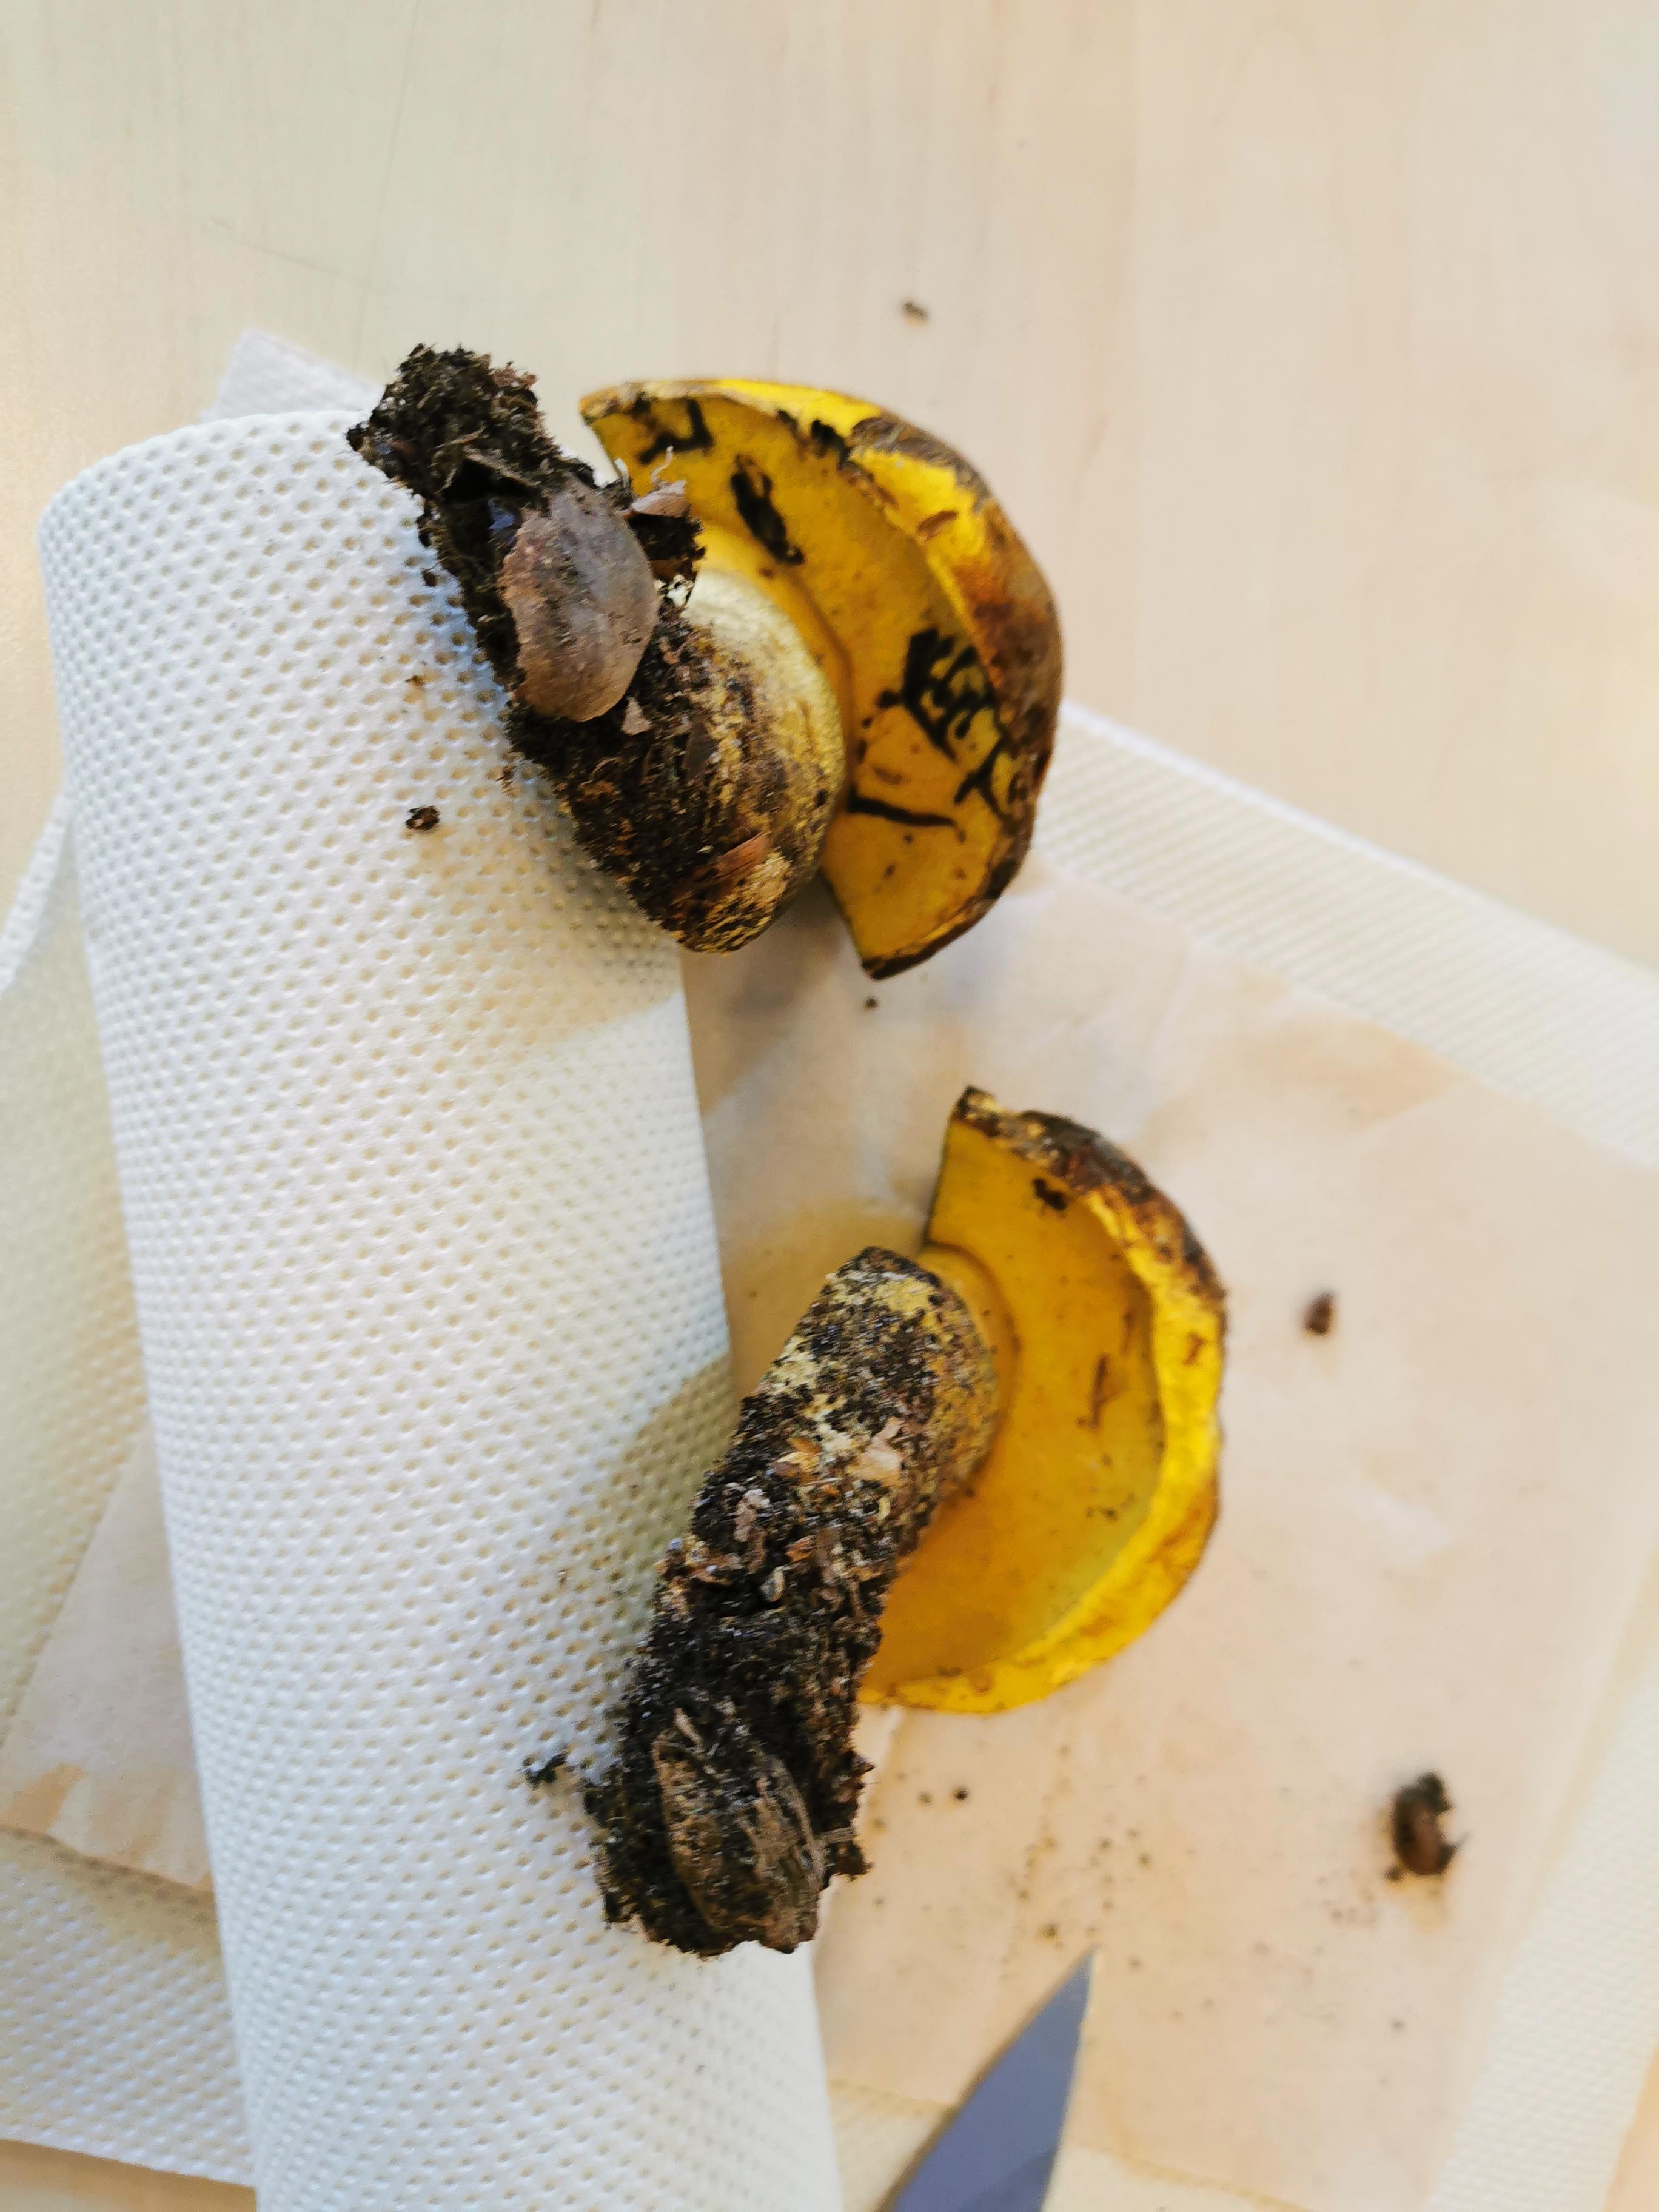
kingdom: Fungi
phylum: Basidiomycota
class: Agaricomycetes
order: Boletales
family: Boletaceae
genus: Neoboletus
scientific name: Neoboletus praestigiator
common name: gul indigorørhat
